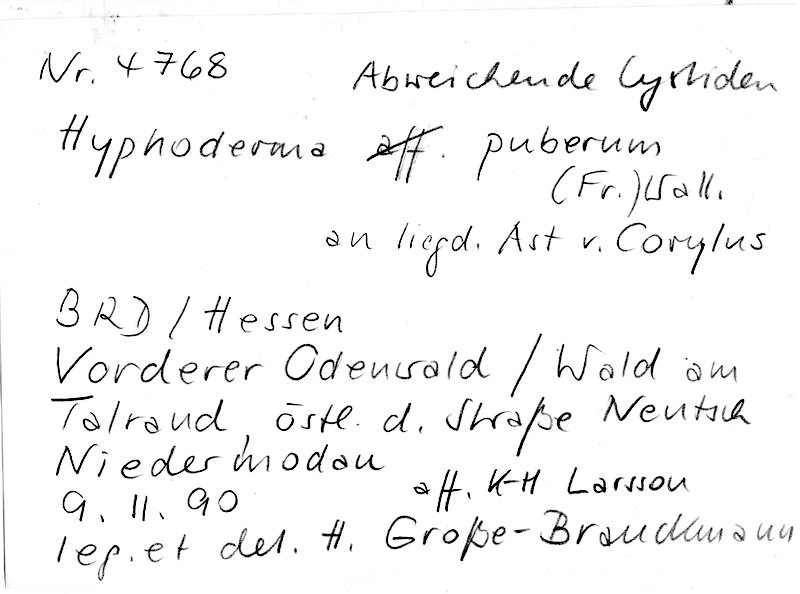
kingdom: Fungi
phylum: Basidiomycota
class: Agaricomycetes
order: Hymenochaetales
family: Rickenellaceae
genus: Peniophorella
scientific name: Peniophorella pubera
